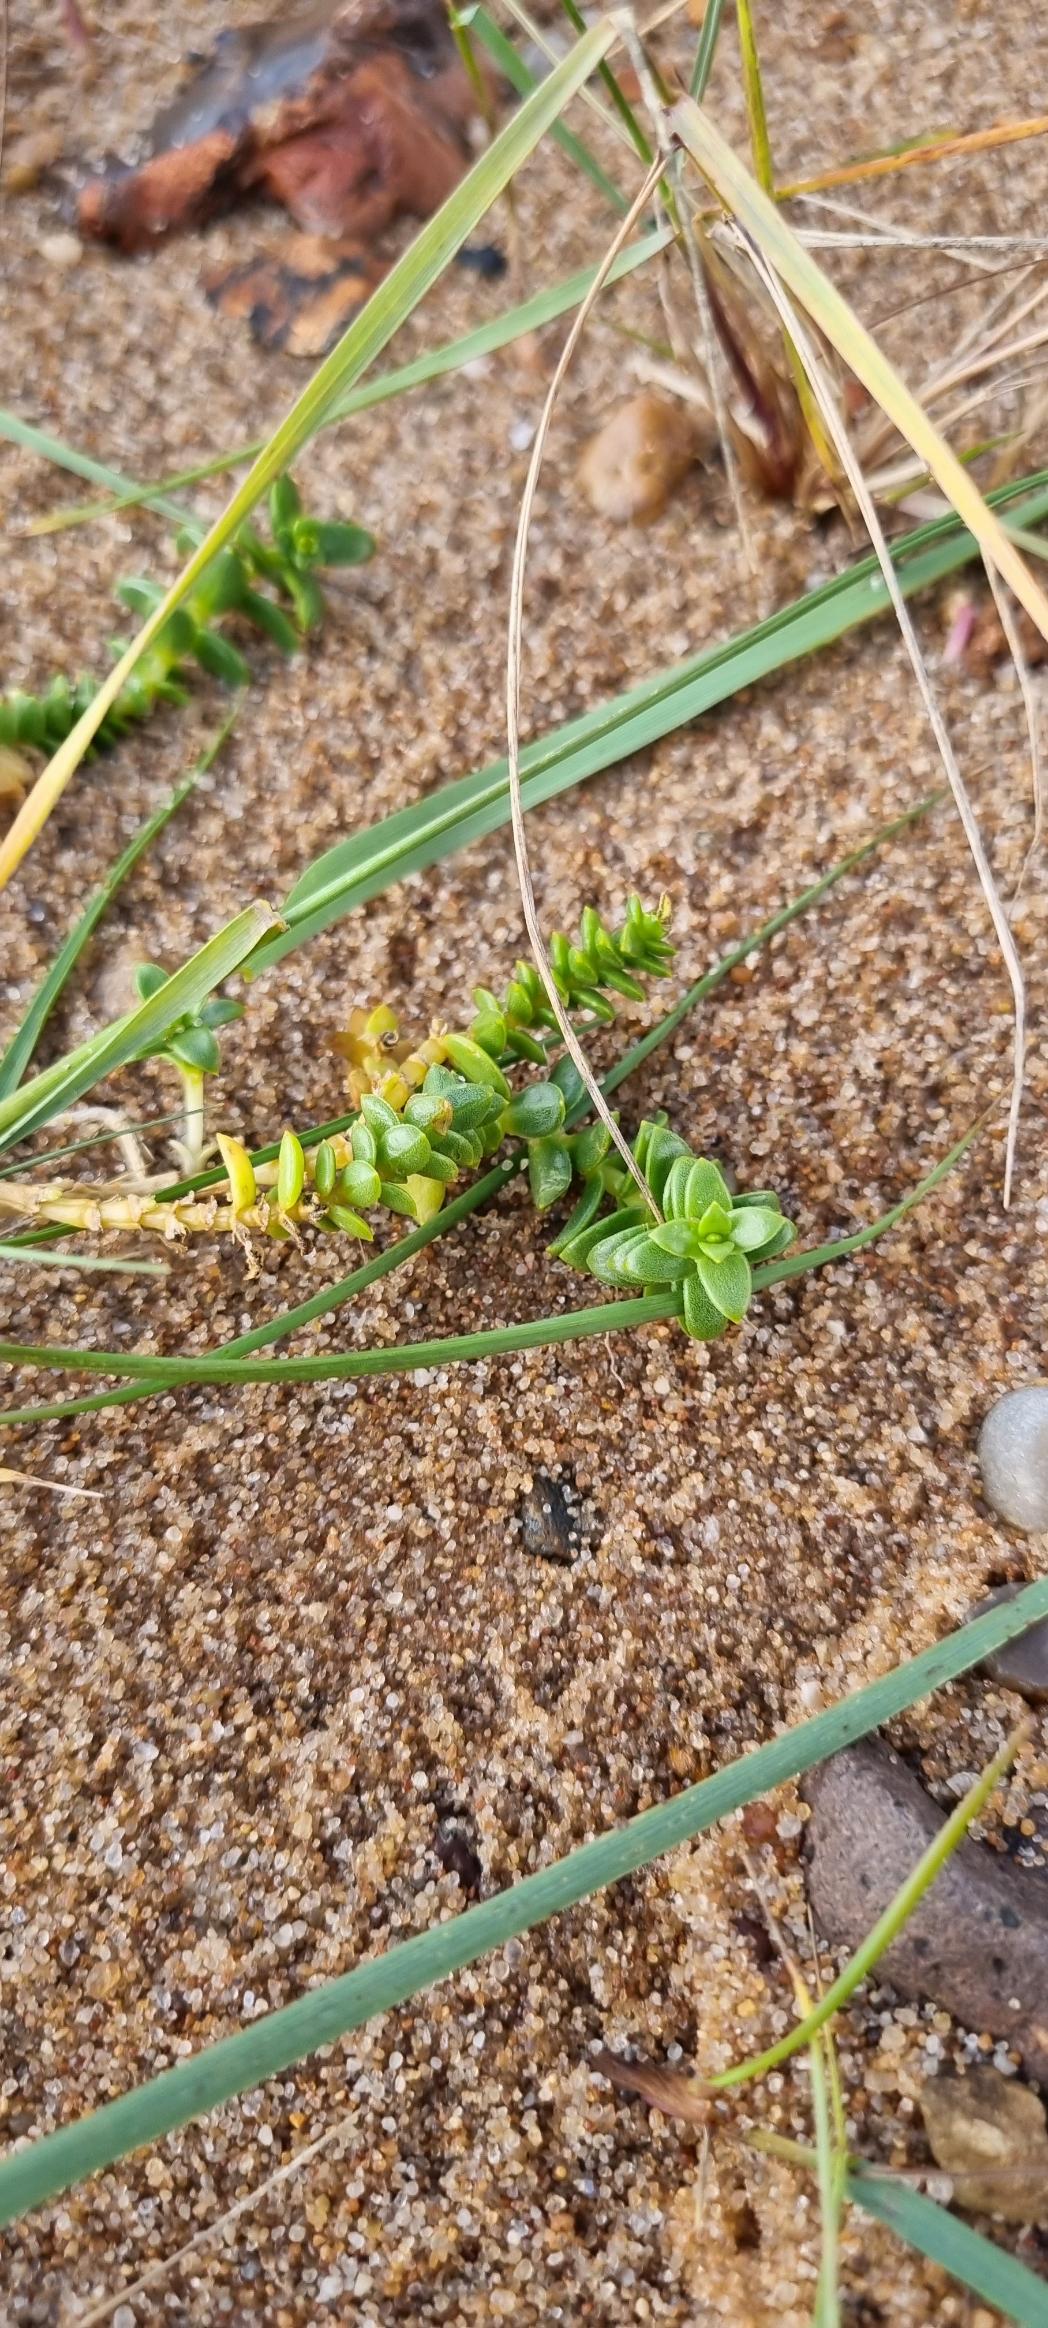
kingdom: Plantae
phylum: Tracheophyta
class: Magnoliopsida
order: Caryophyllales
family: Caryophyllaceae
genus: Honckenya
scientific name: Honckenya peploides
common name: Strandarve
